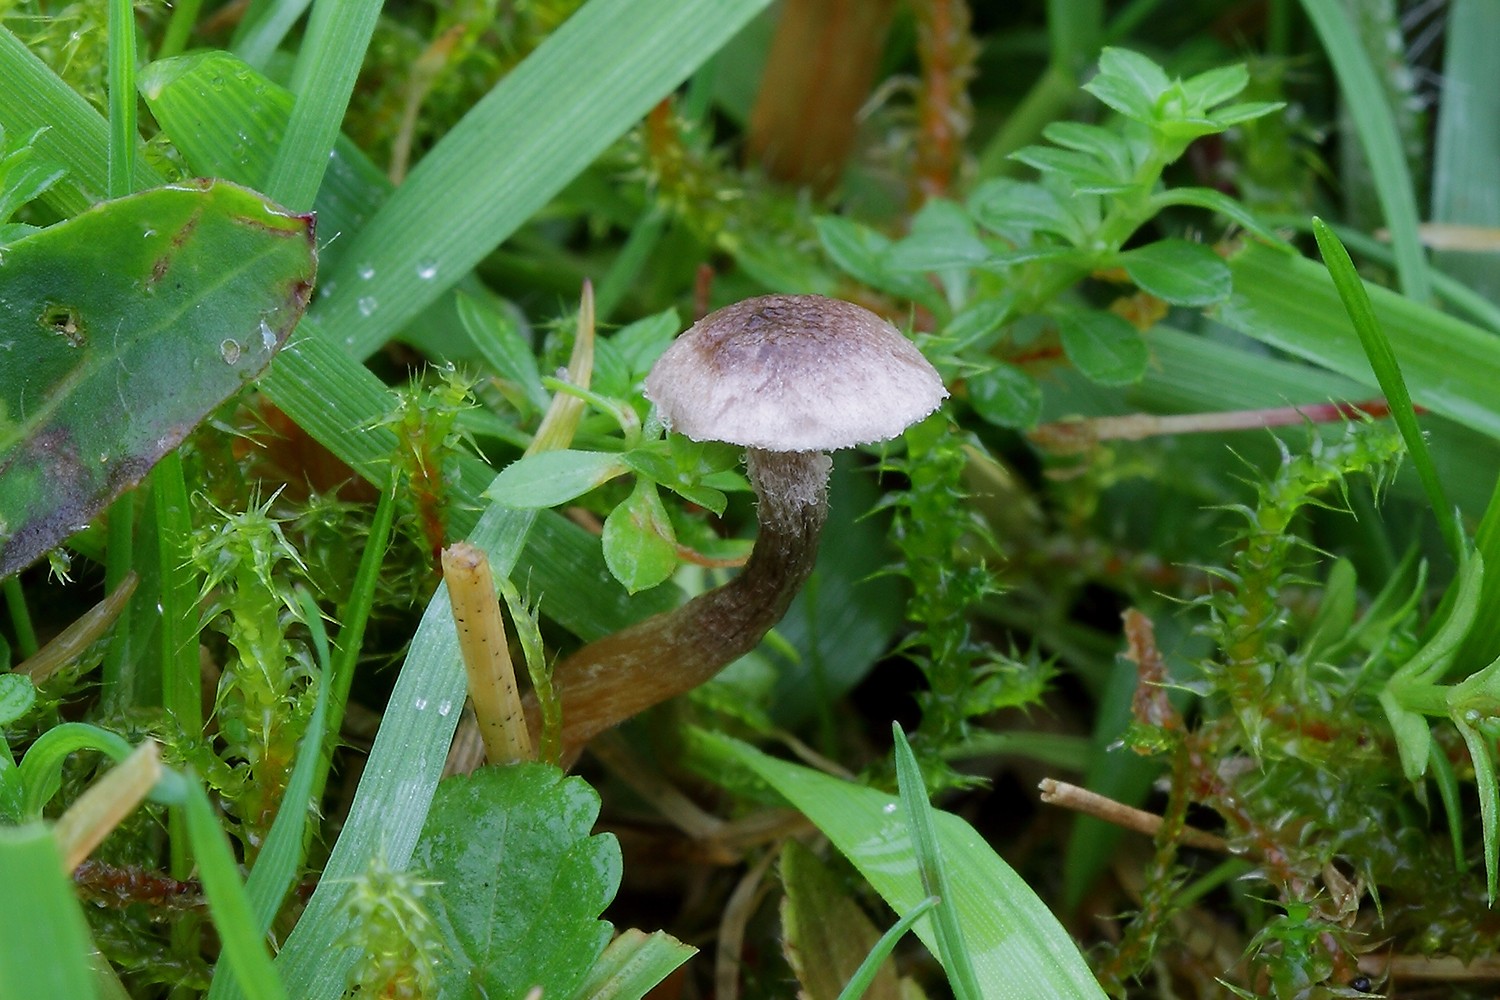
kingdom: Fungi
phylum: Basidiomycota
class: Agaricomycetes
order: Agaricales
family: Squamanitaceae
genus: Dissoderma
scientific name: Dissoderma galerinicola
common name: hjelmhat-knoldfod
